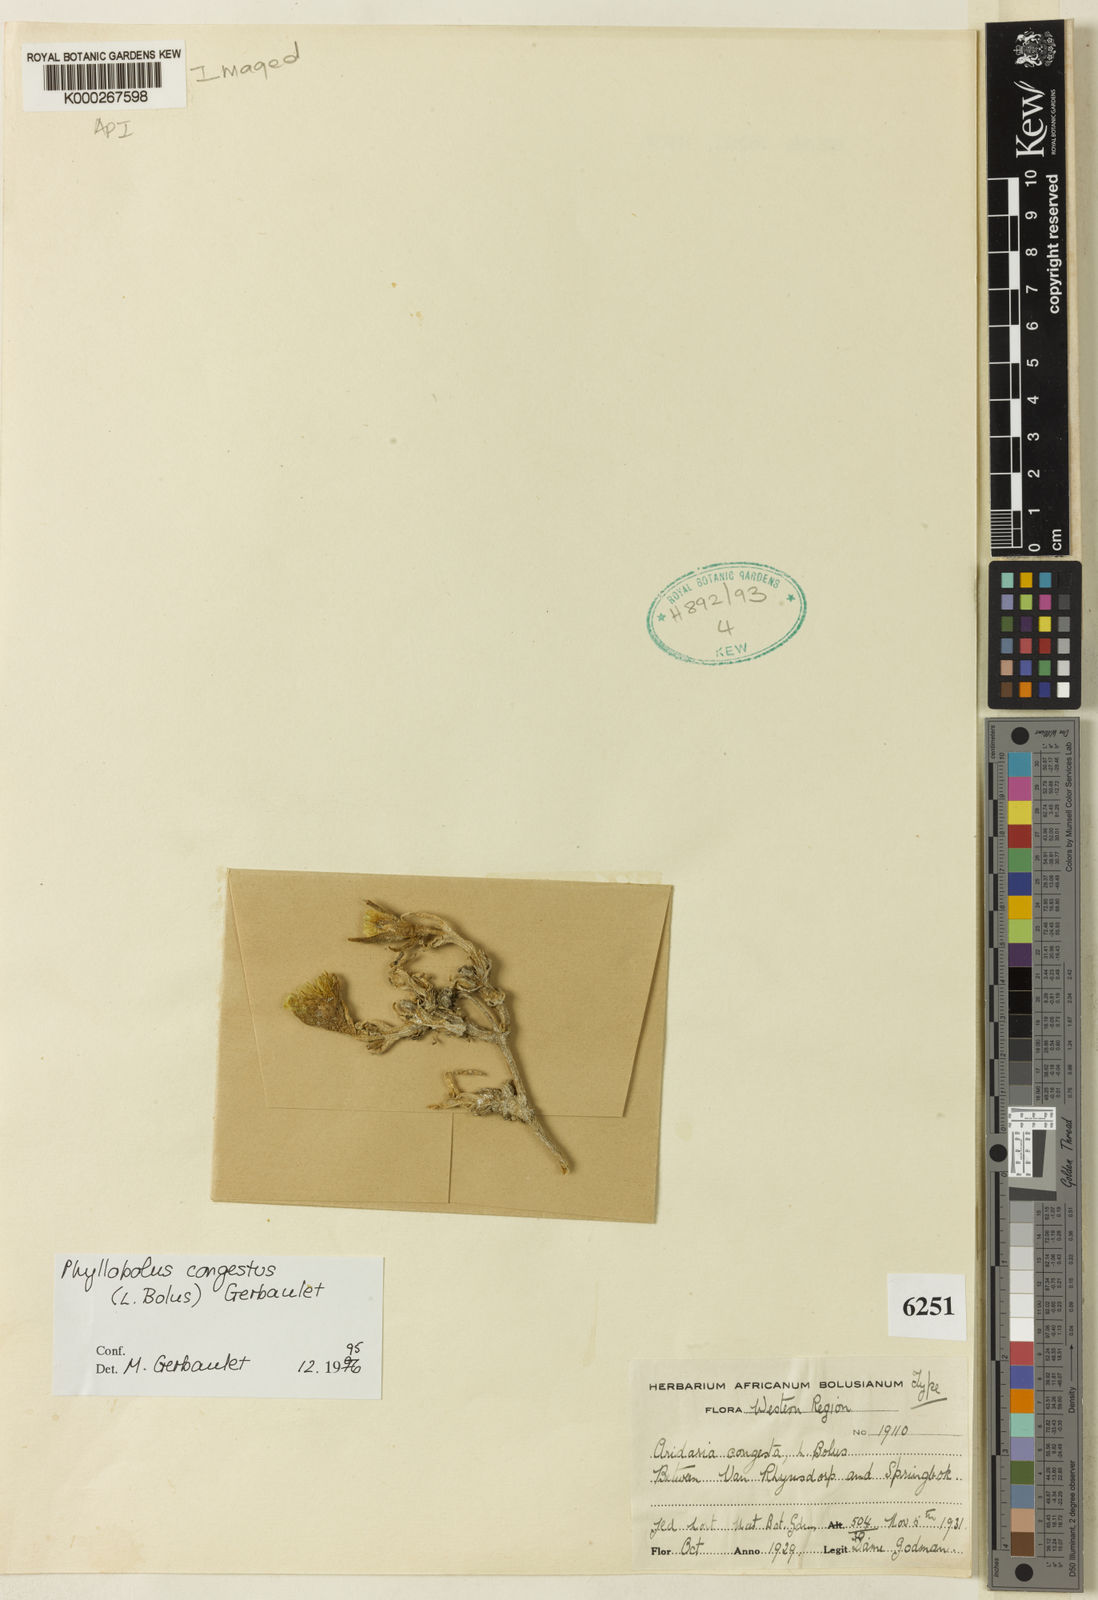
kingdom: Plantae
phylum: Tracheophyta
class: Magnoliopsida
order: Caryophyllales
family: Aizoaceae
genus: Mesembryanthemum
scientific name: Mesembryanthemum
